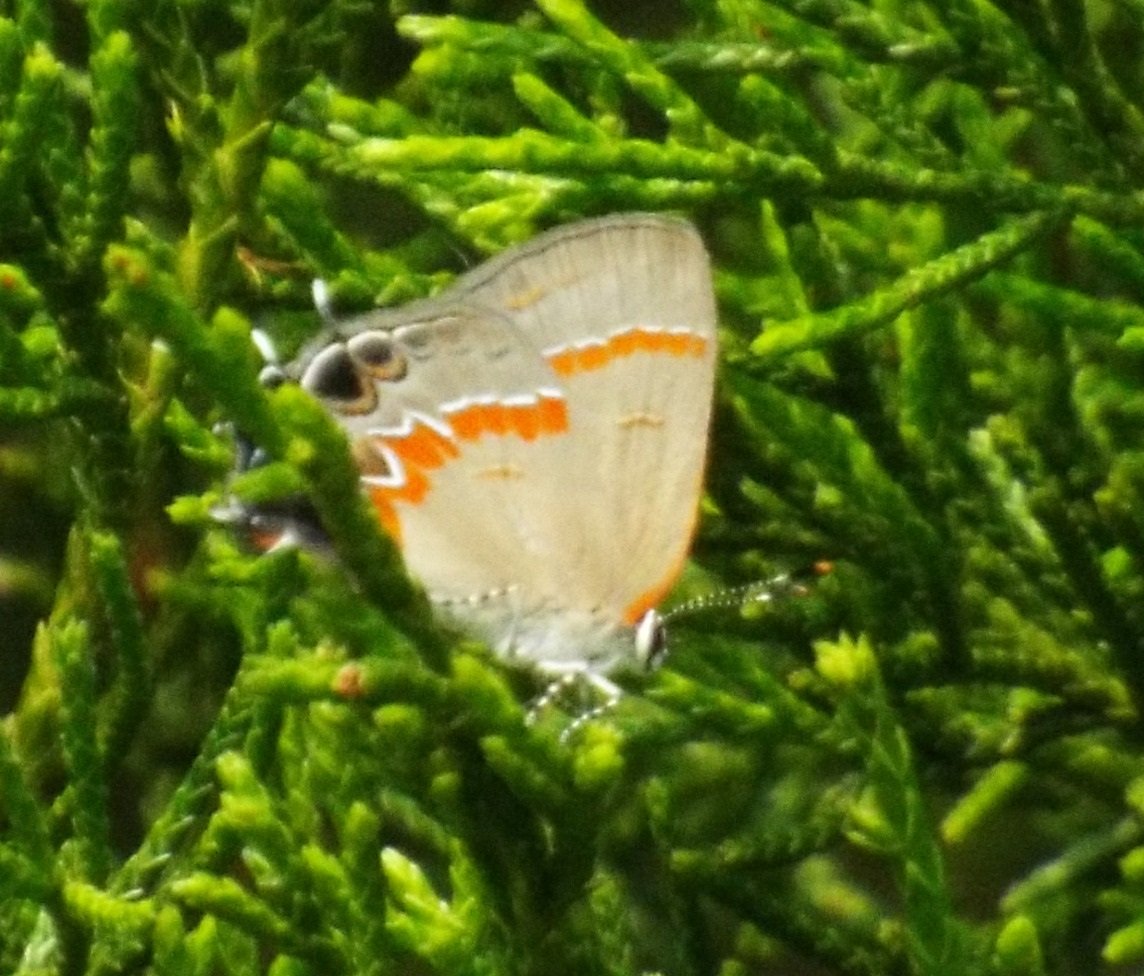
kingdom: Animalia
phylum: Arthropoda
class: Insecta
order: Lepidoptera
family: Lycaenidae
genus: Calycopis
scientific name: Calycopis cecrops
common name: Red-banded Hairstreak
